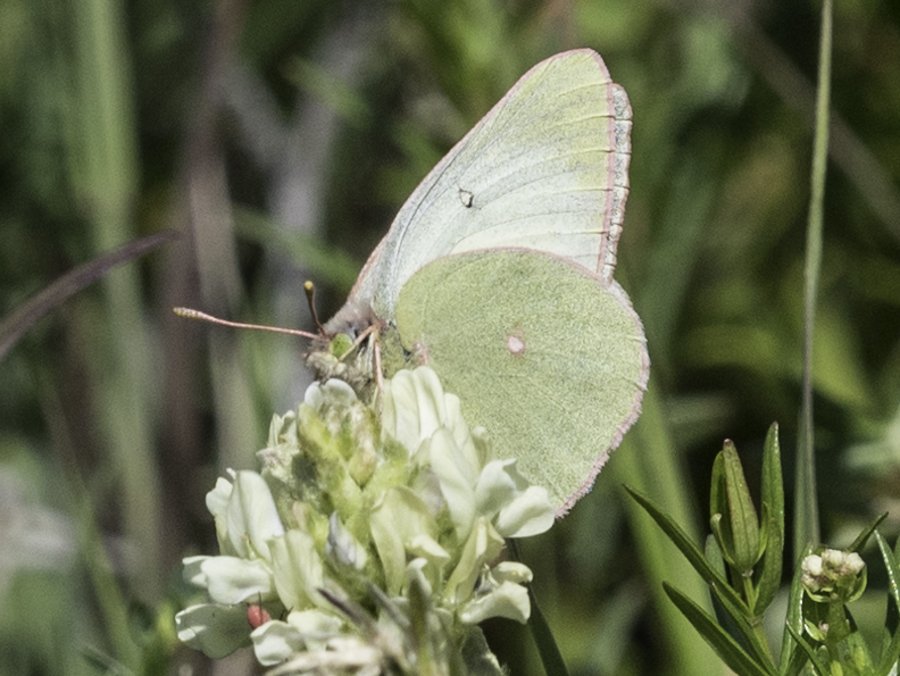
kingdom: Animalia
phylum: Arthropoda
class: Insecta
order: Lepidoptera
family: Pieridae
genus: Colias
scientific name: Colias christina
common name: Christina Sulphur
